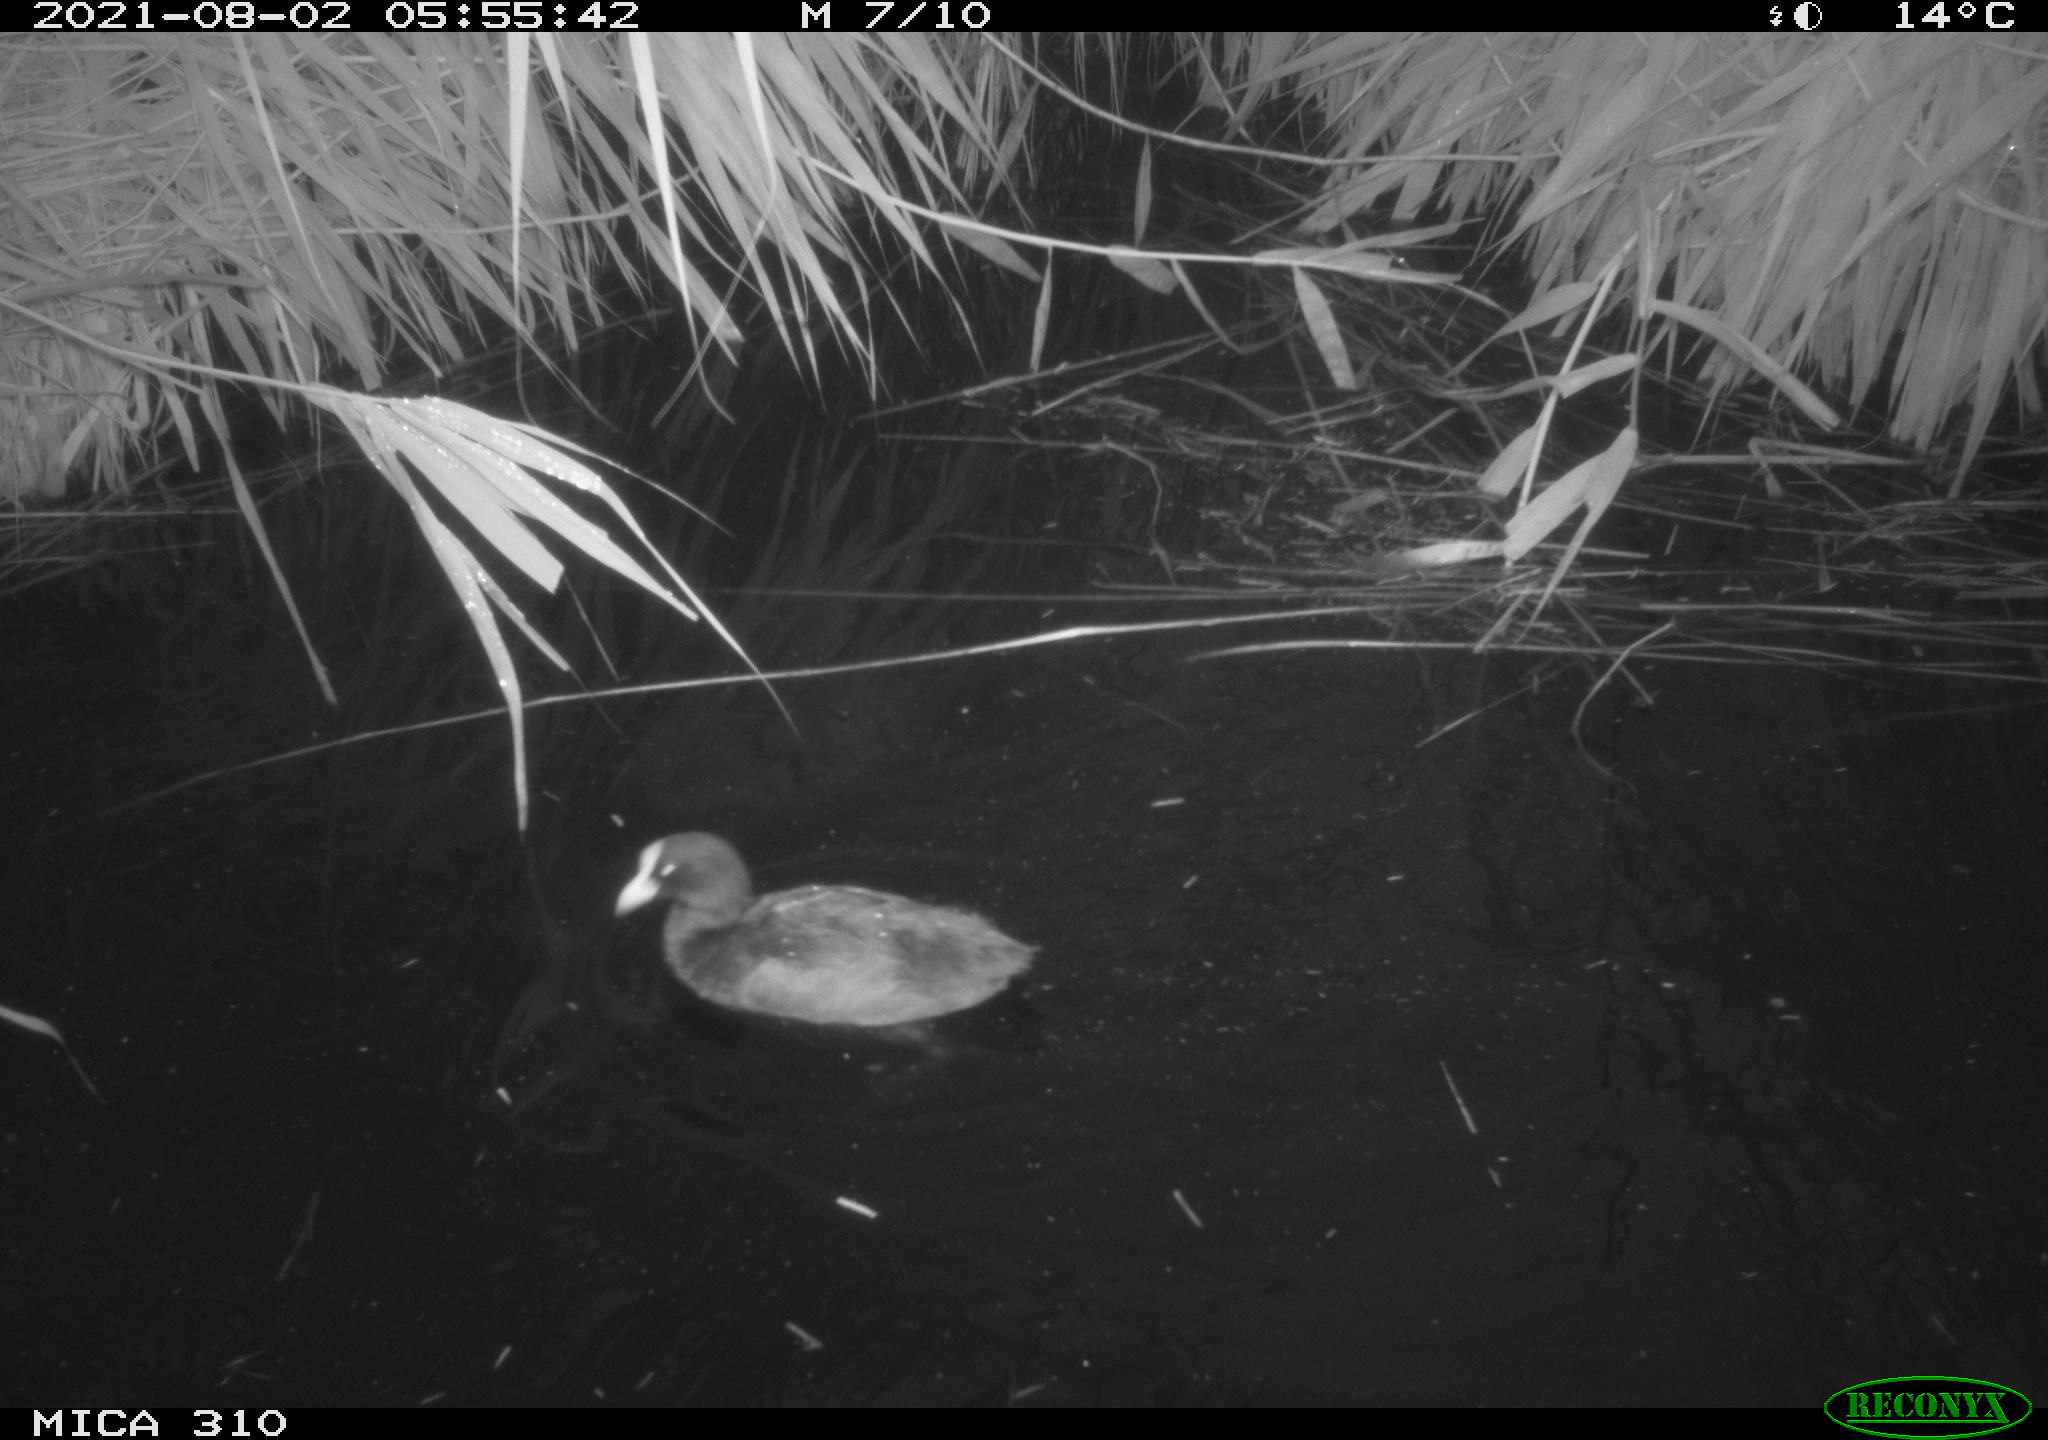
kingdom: Animalia
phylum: Chordata
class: Aves
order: Gruiformes
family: Rallidae
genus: Fulica
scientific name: Fulica atra
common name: Eurasian coot
